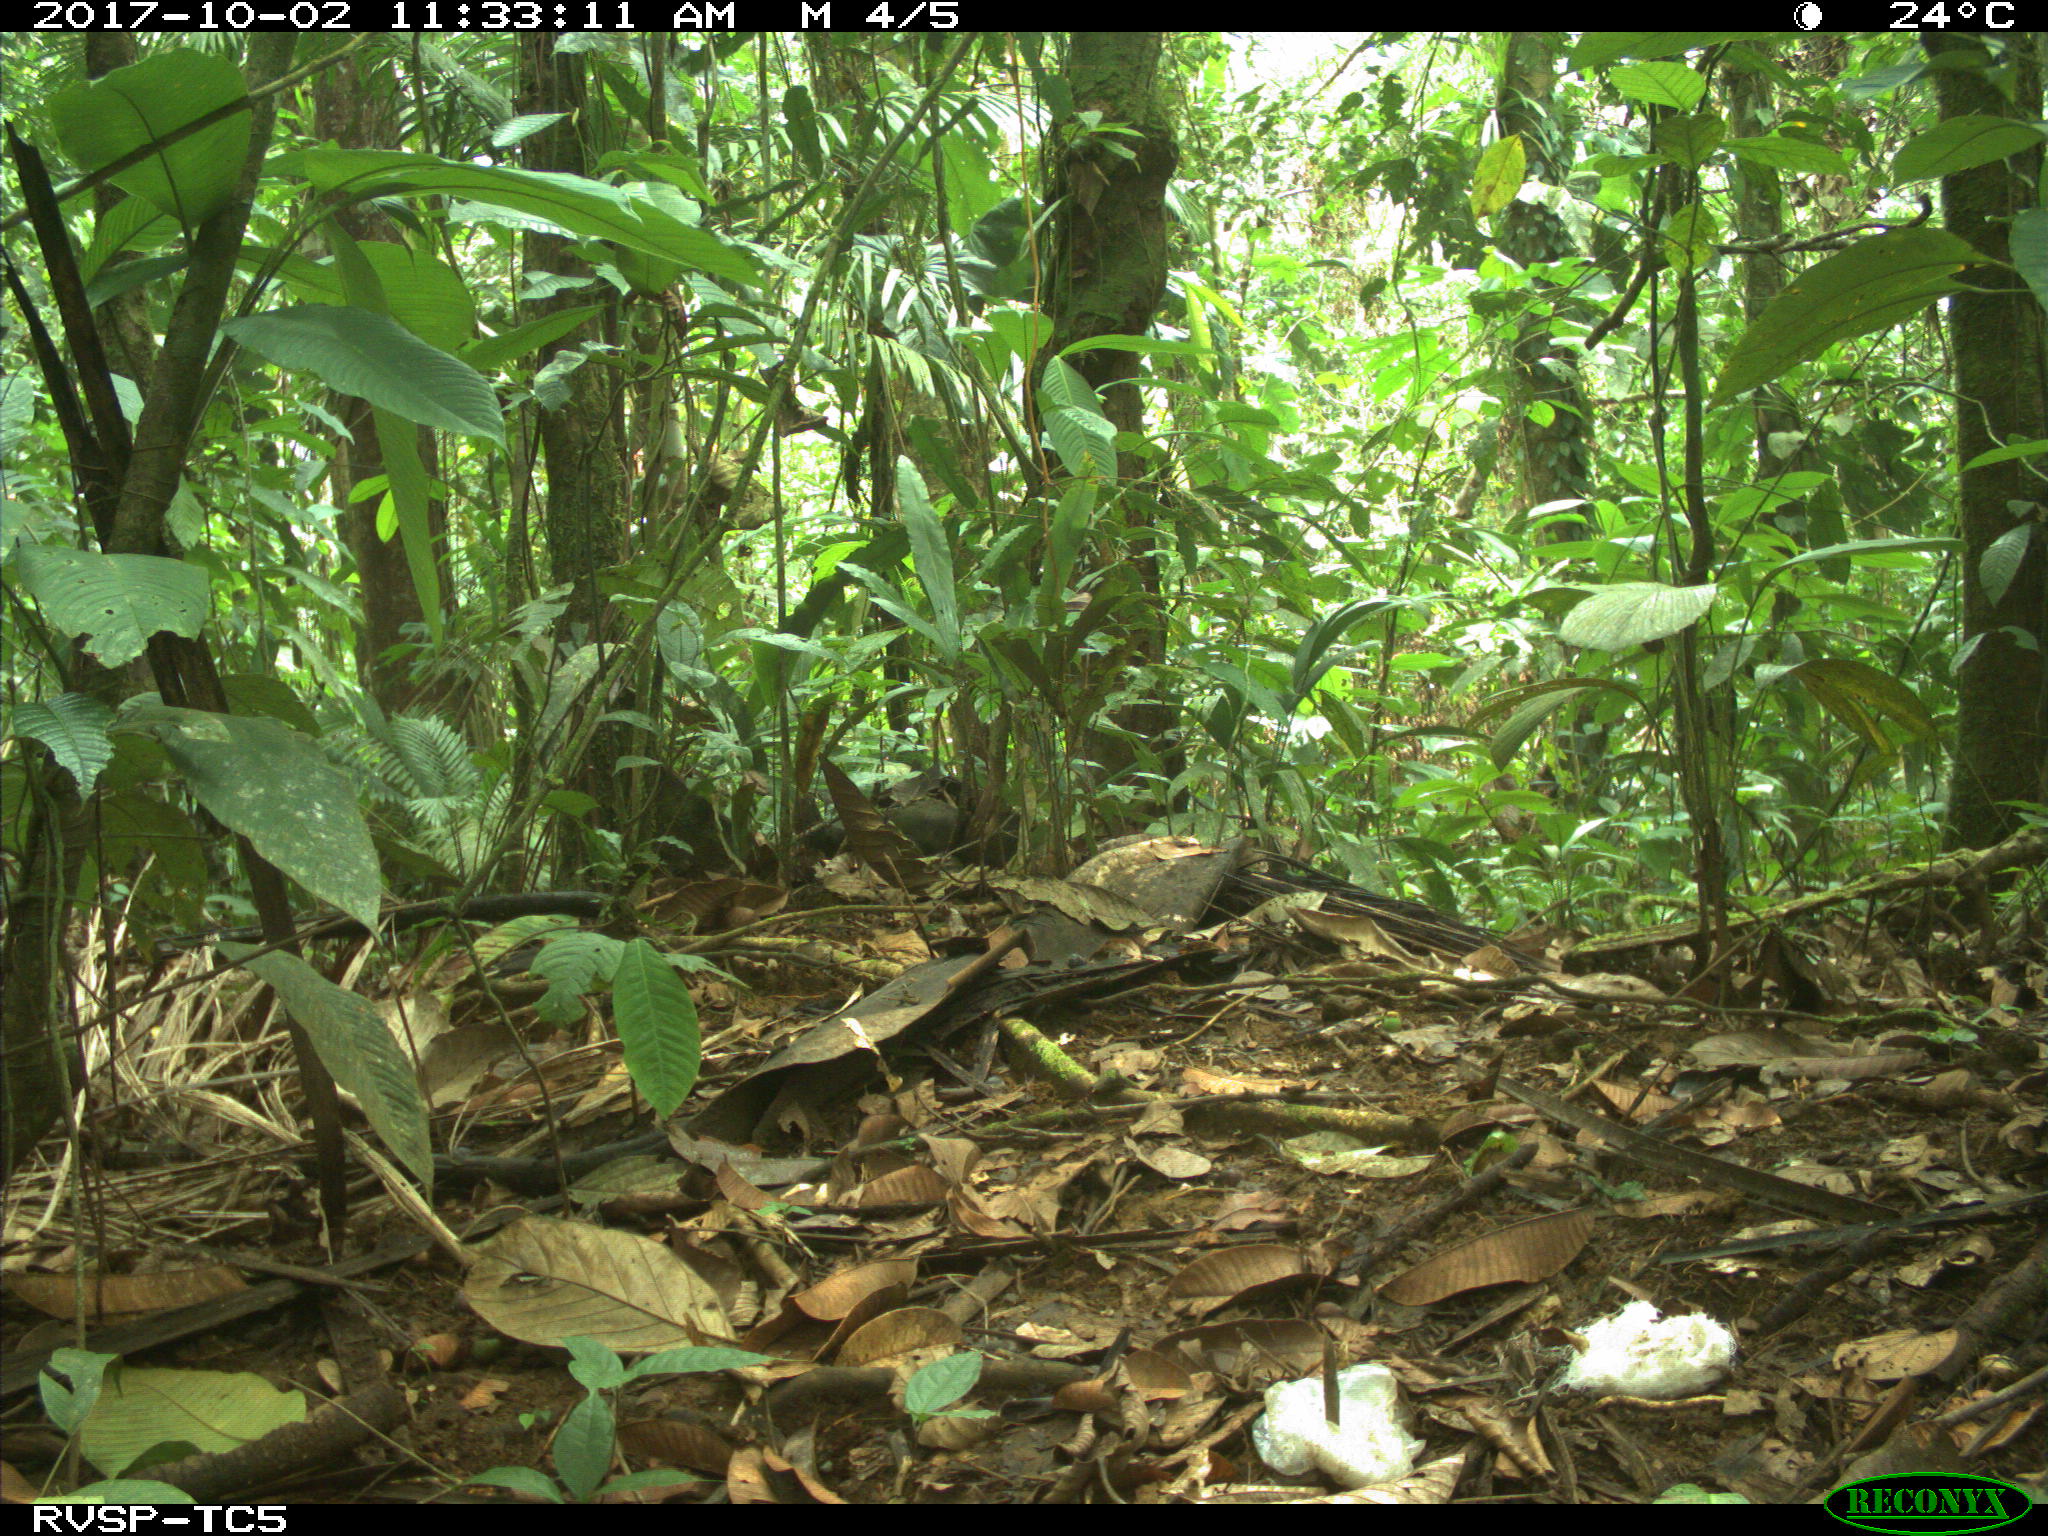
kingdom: Animalia
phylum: Chordata
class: Mammalia
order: Carnivora
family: Mustelidae
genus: Eira
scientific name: Eira barbara
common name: Tayra
